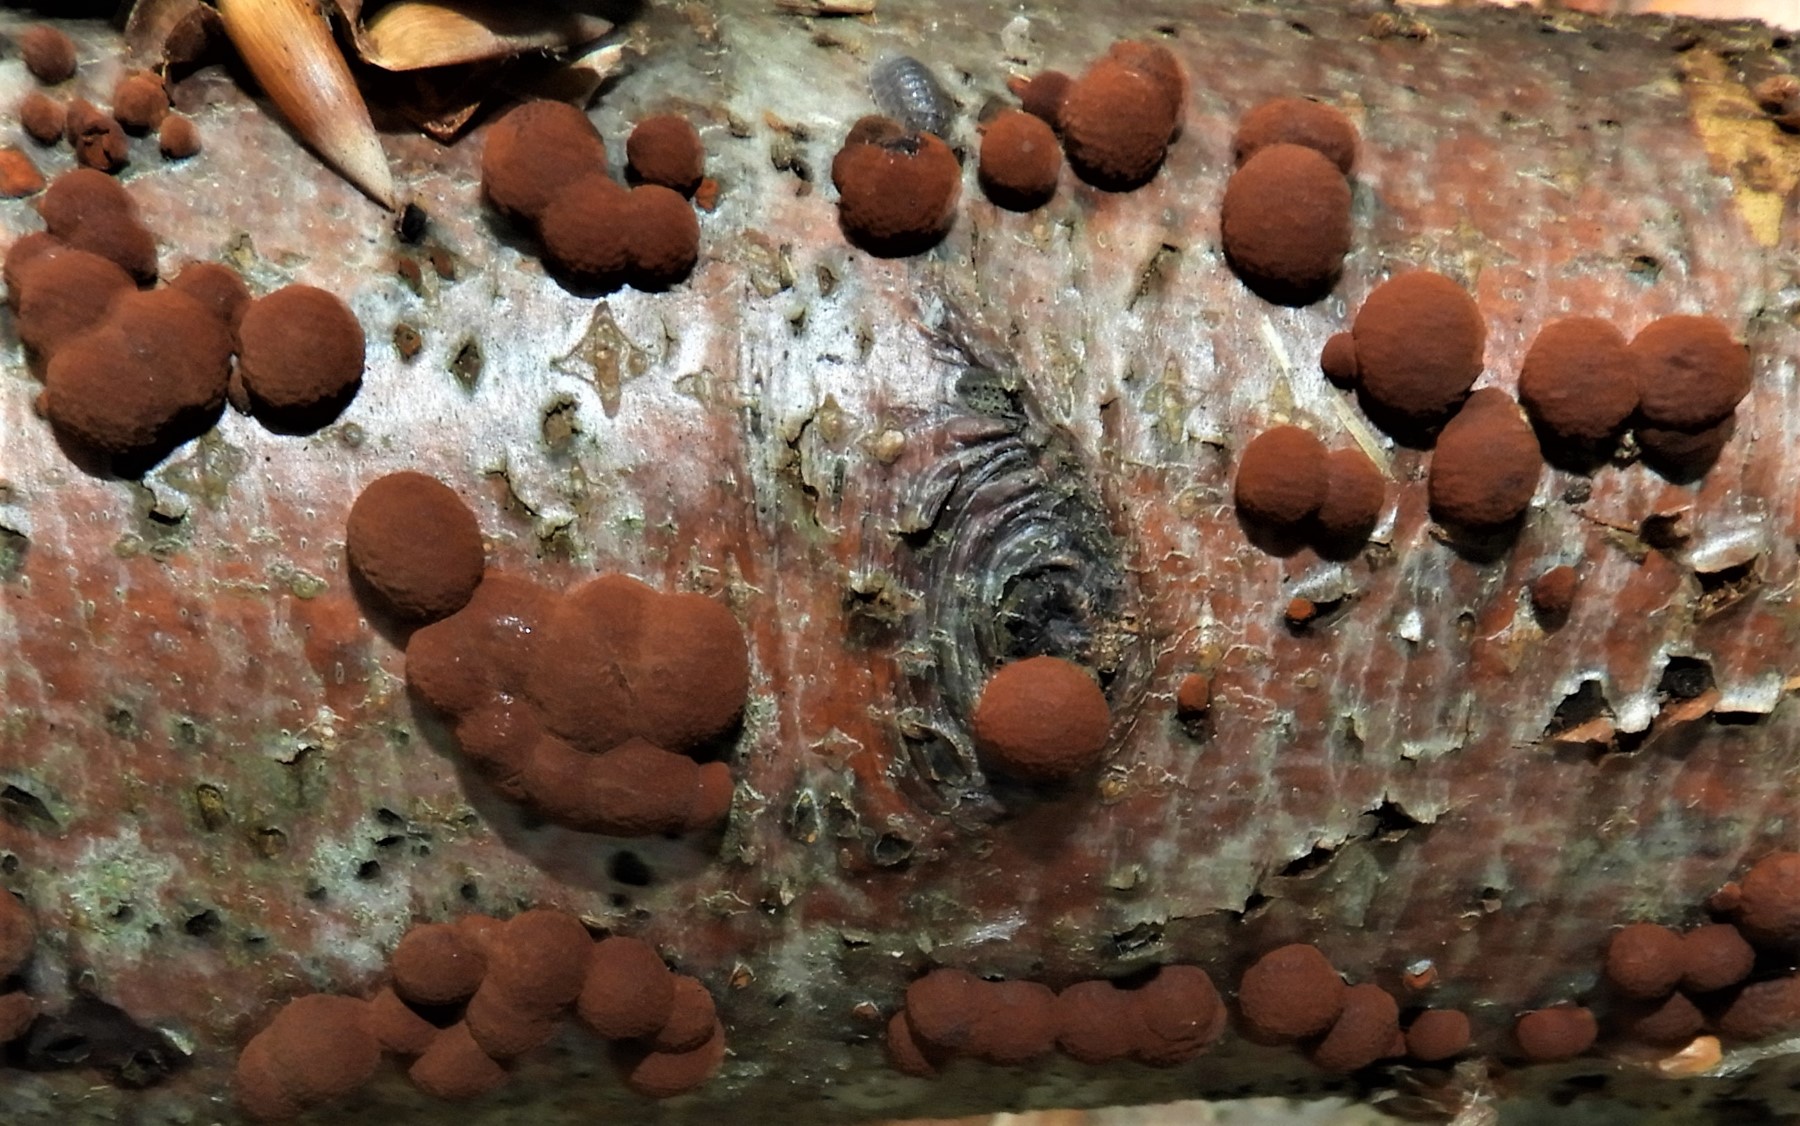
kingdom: Fungi
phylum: Ascomycota
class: Sordariomycetes
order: Xylariales
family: Hypoxylaceae
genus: Hypoxylon
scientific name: Hypoxylon fragiforme
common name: kuljordbær
